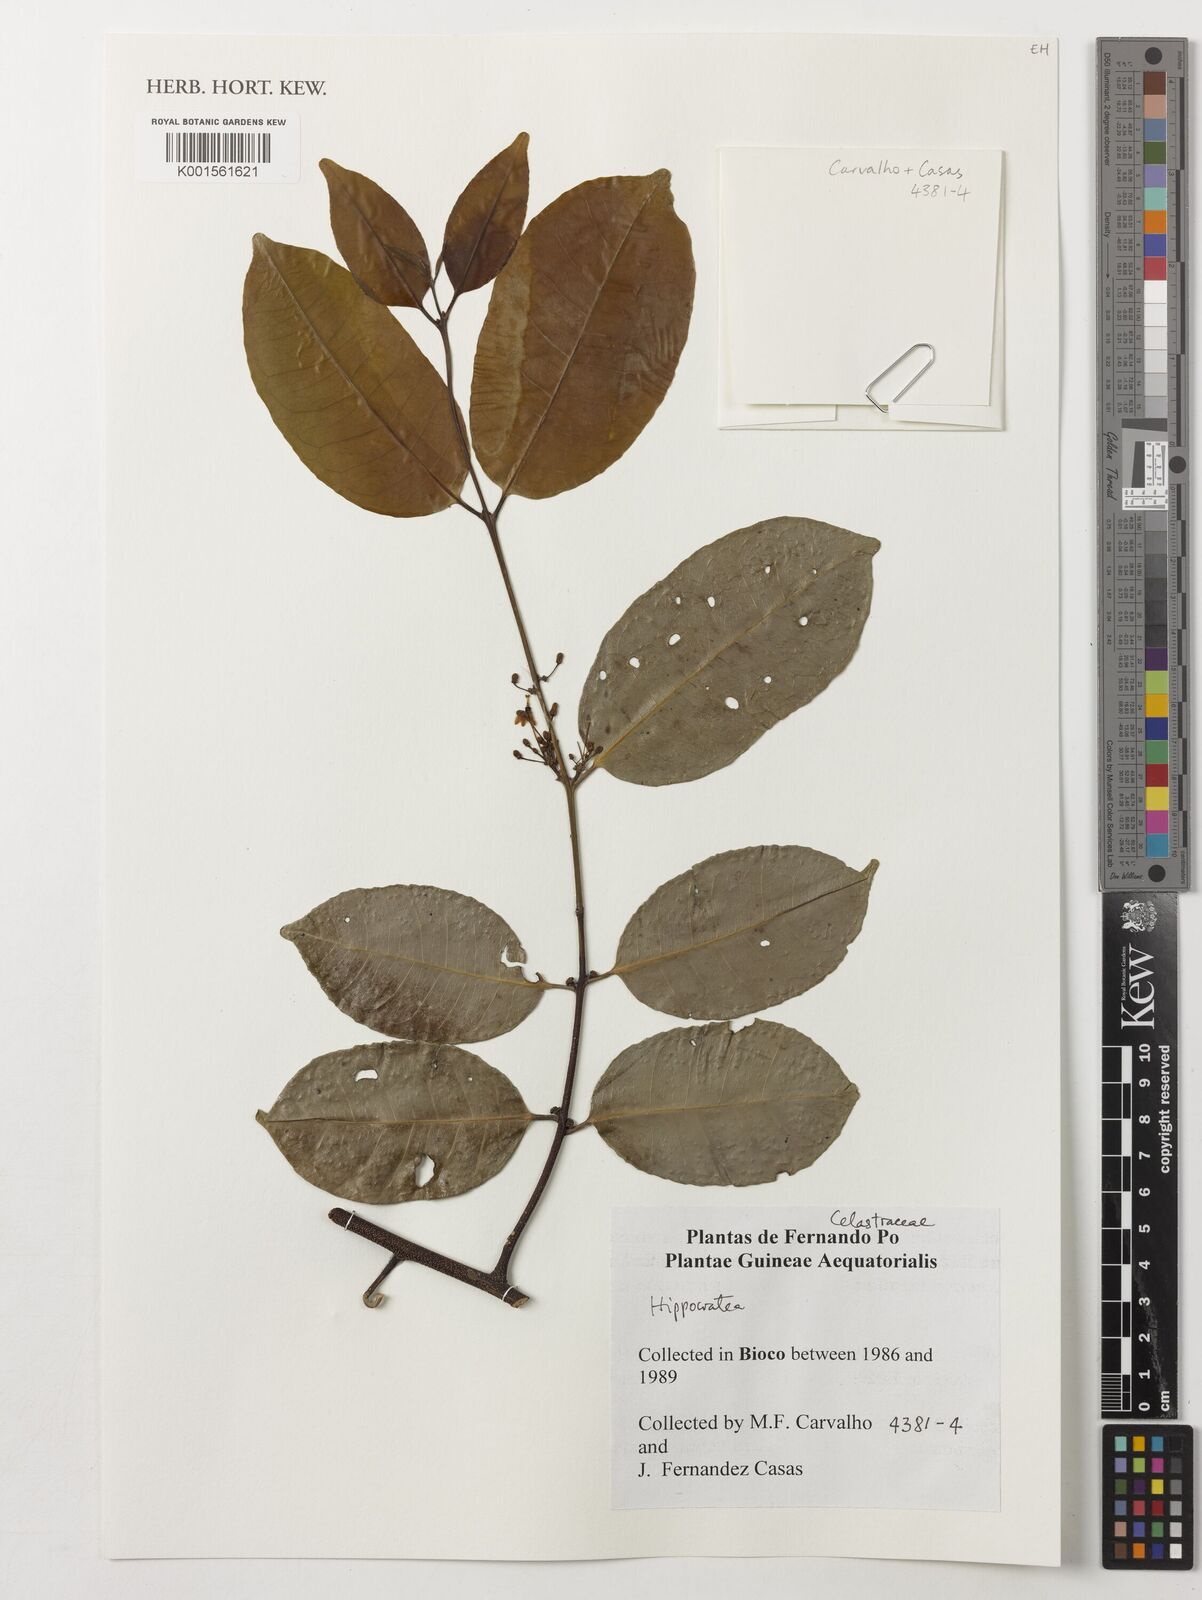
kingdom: Plantae
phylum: Tracheophyta
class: Magnoliopsida
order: Celastrales
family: Celastraceae
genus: Hippocratea
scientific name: Hippocratea
